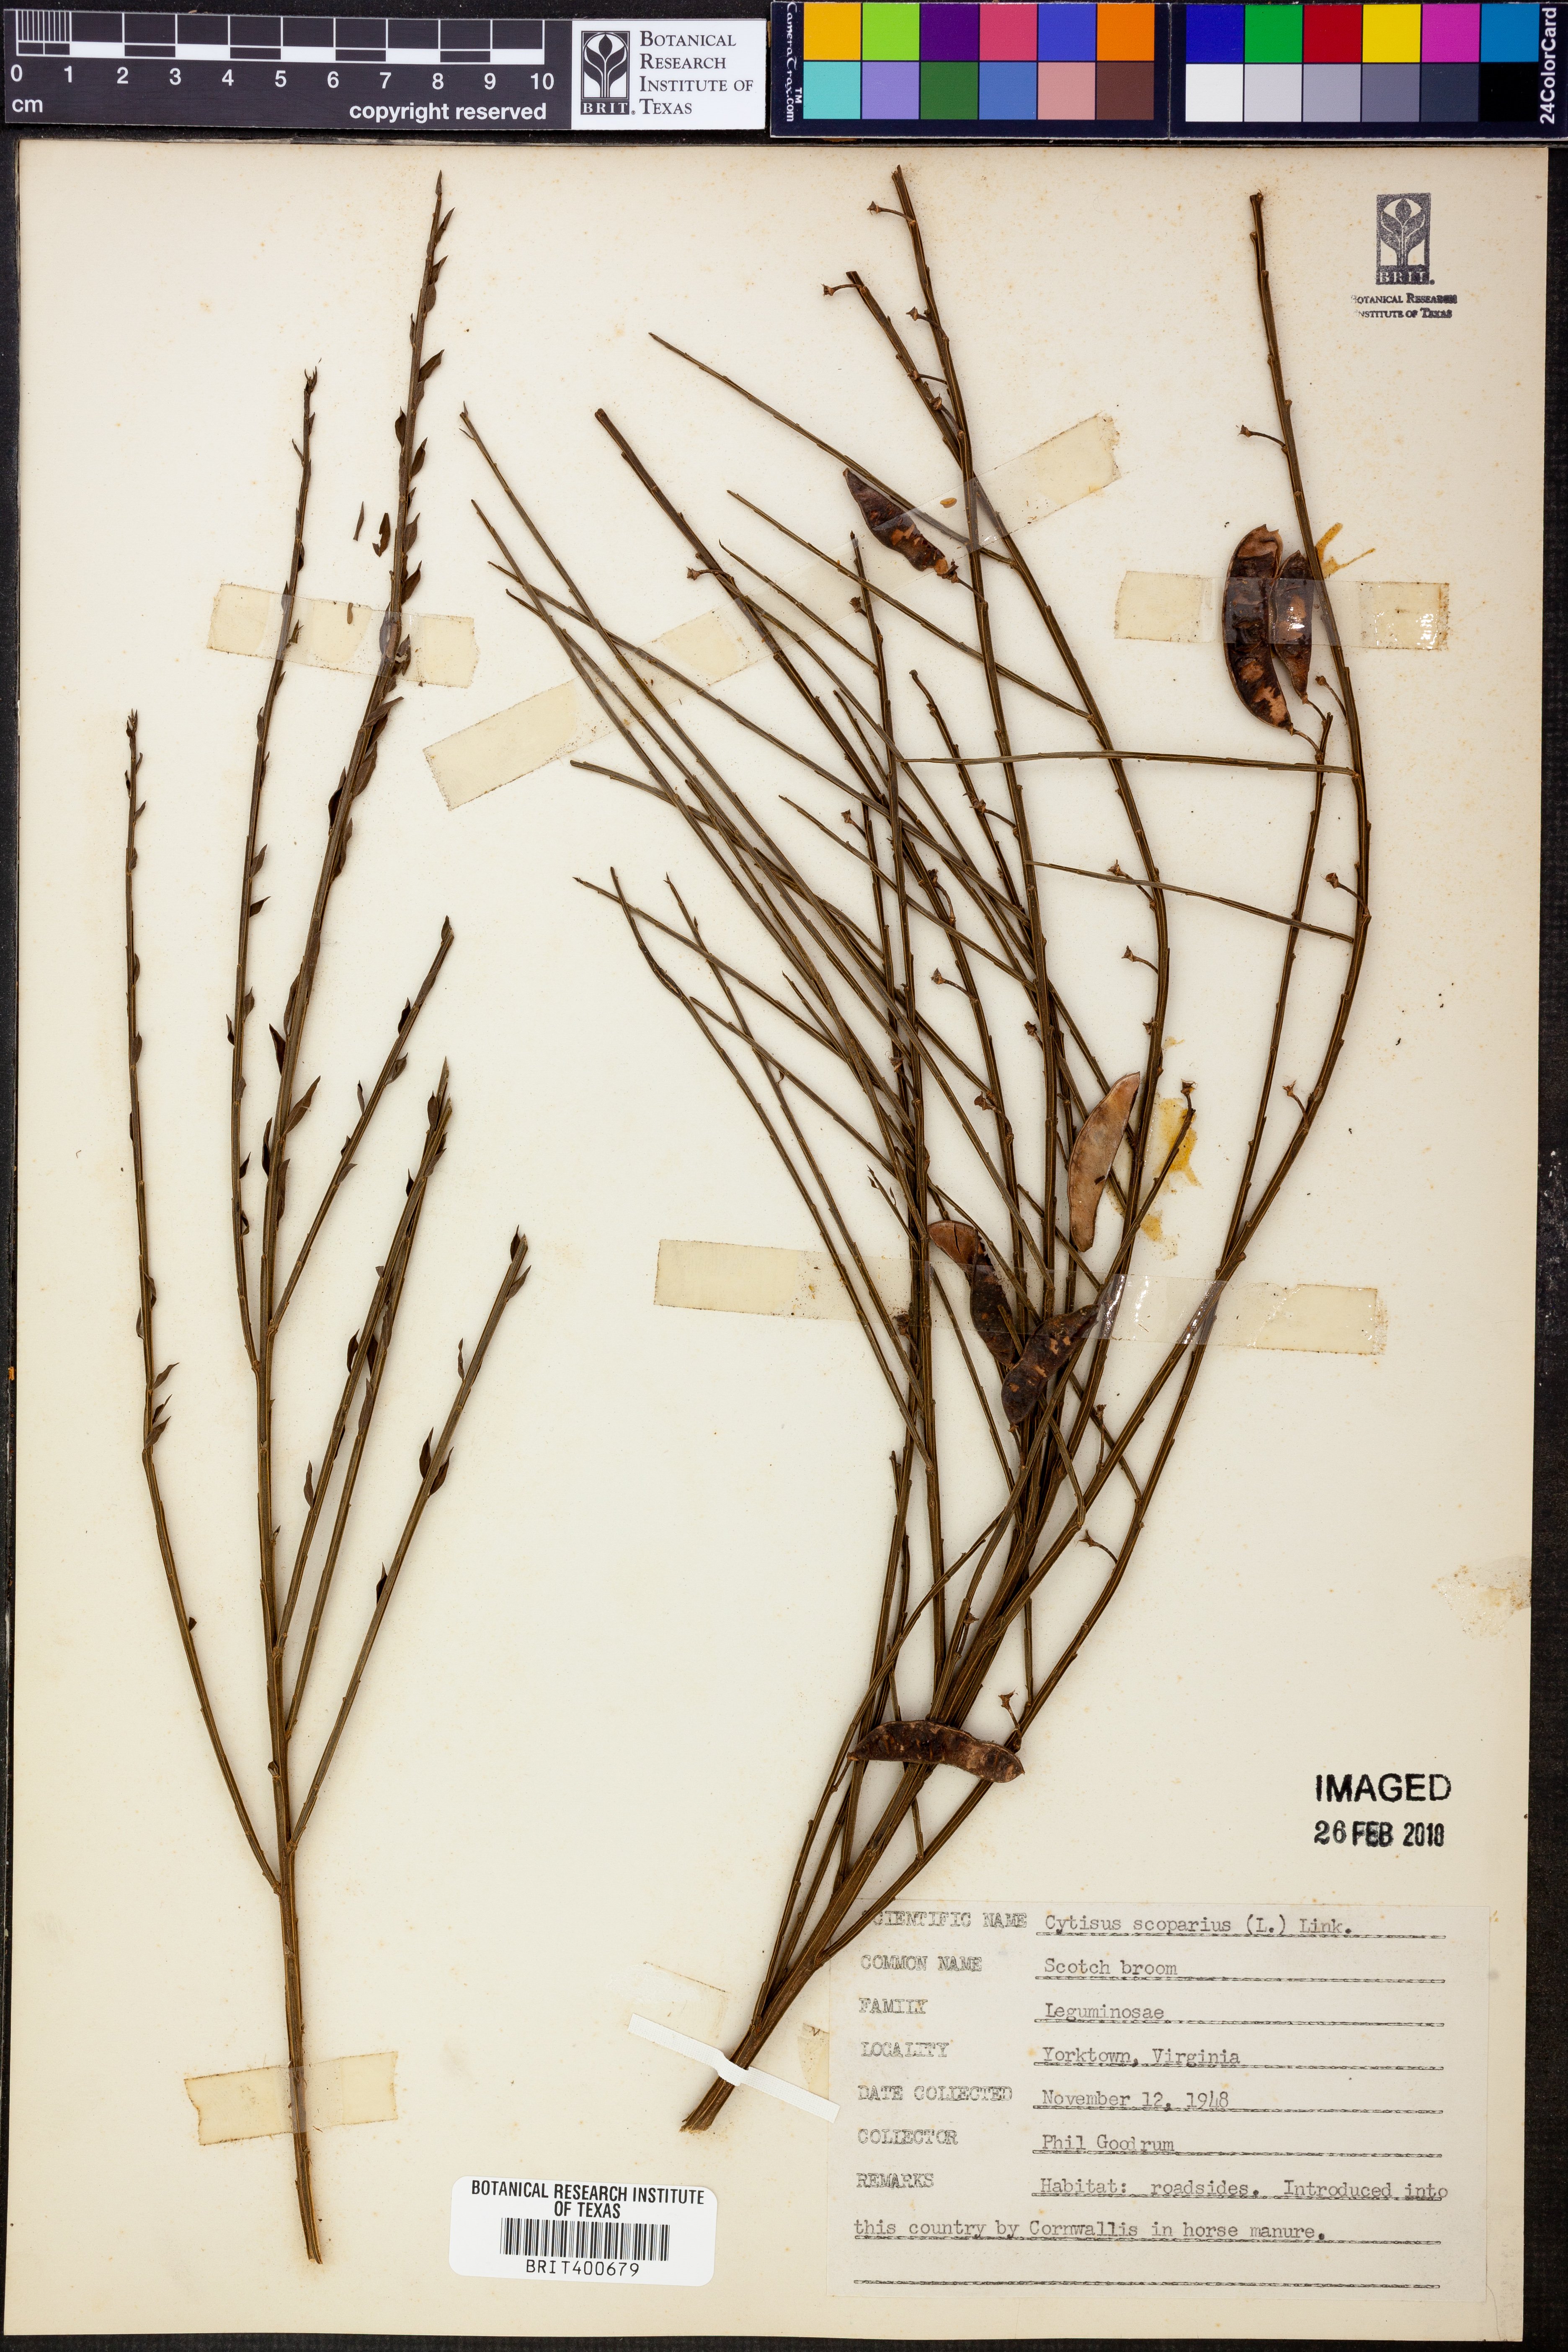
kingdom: Plantae
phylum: Tracheophyta
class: Magnoliopsida
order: Fabales
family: Fabaceae
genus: Cytisus
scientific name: Cytisus scoparius
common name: Scotch broom
